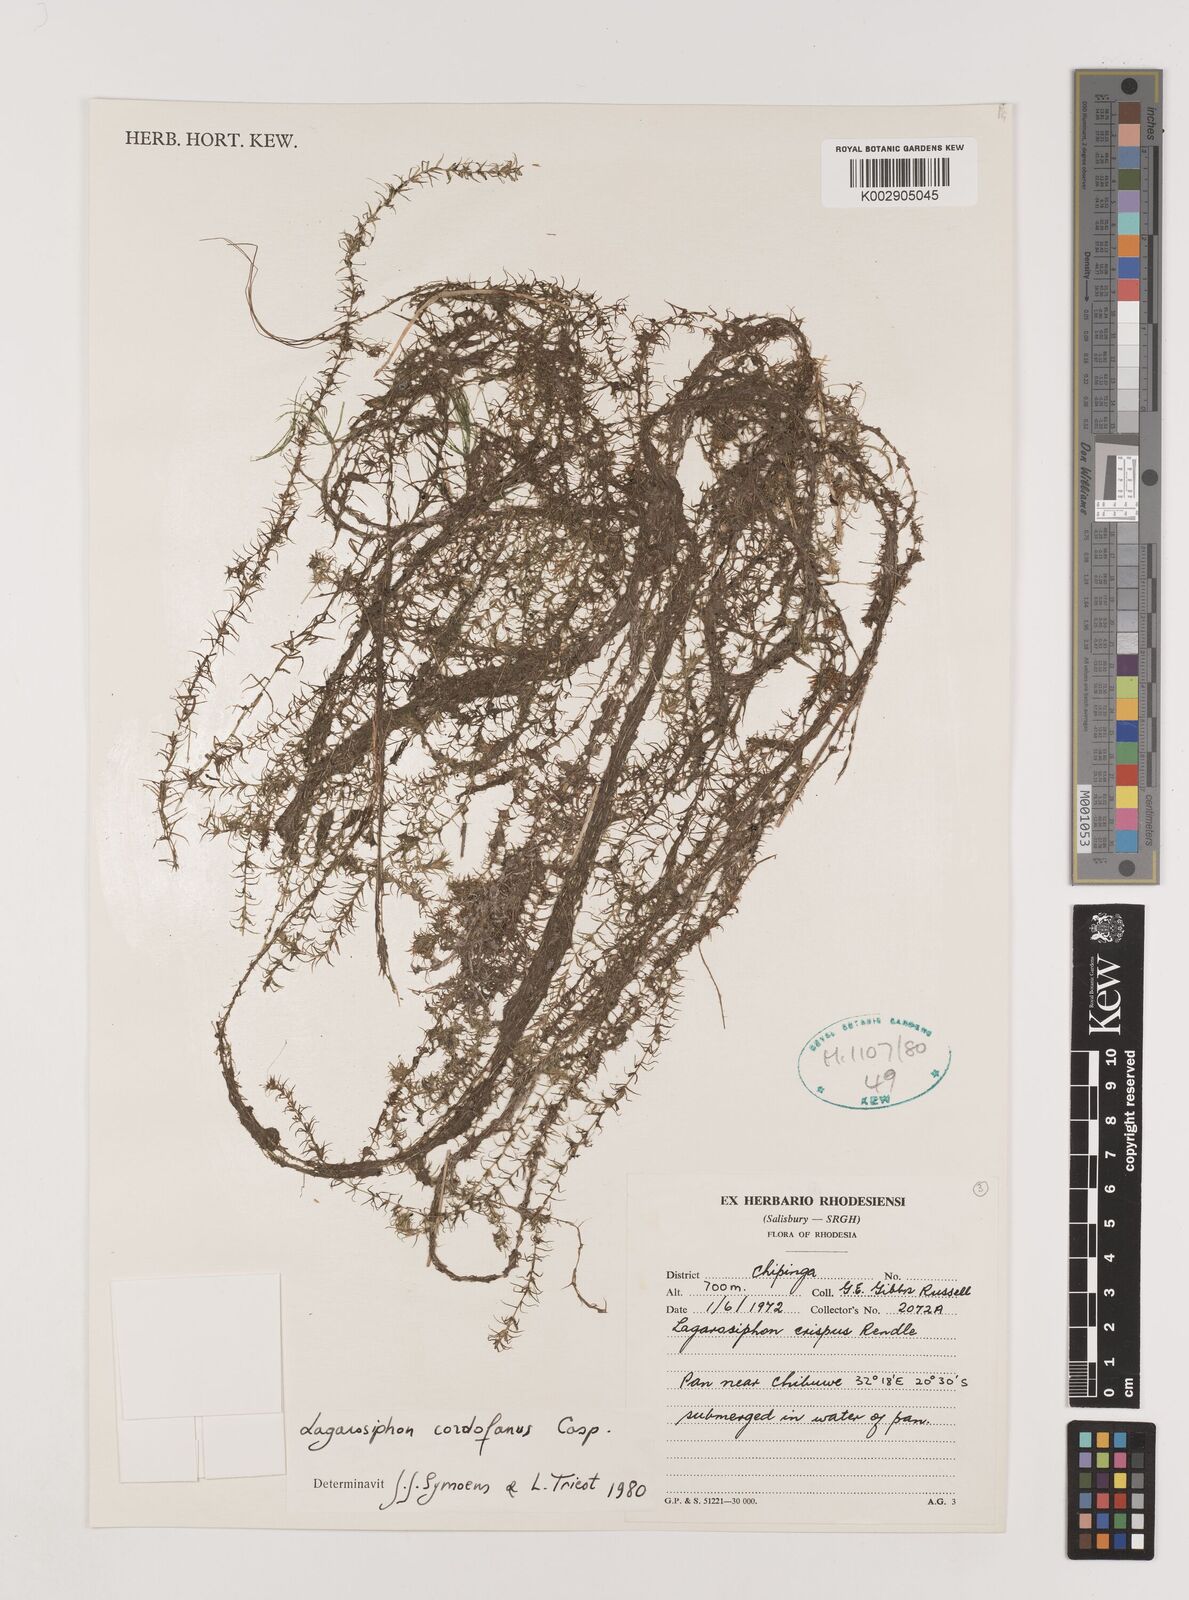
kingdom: Plantae
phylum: Tracheophyta
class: Liliopsida
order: Alismatales
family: Hydrocharitaceae
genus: Lagarosiphon
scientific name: Lagarosiphon cordofanus
